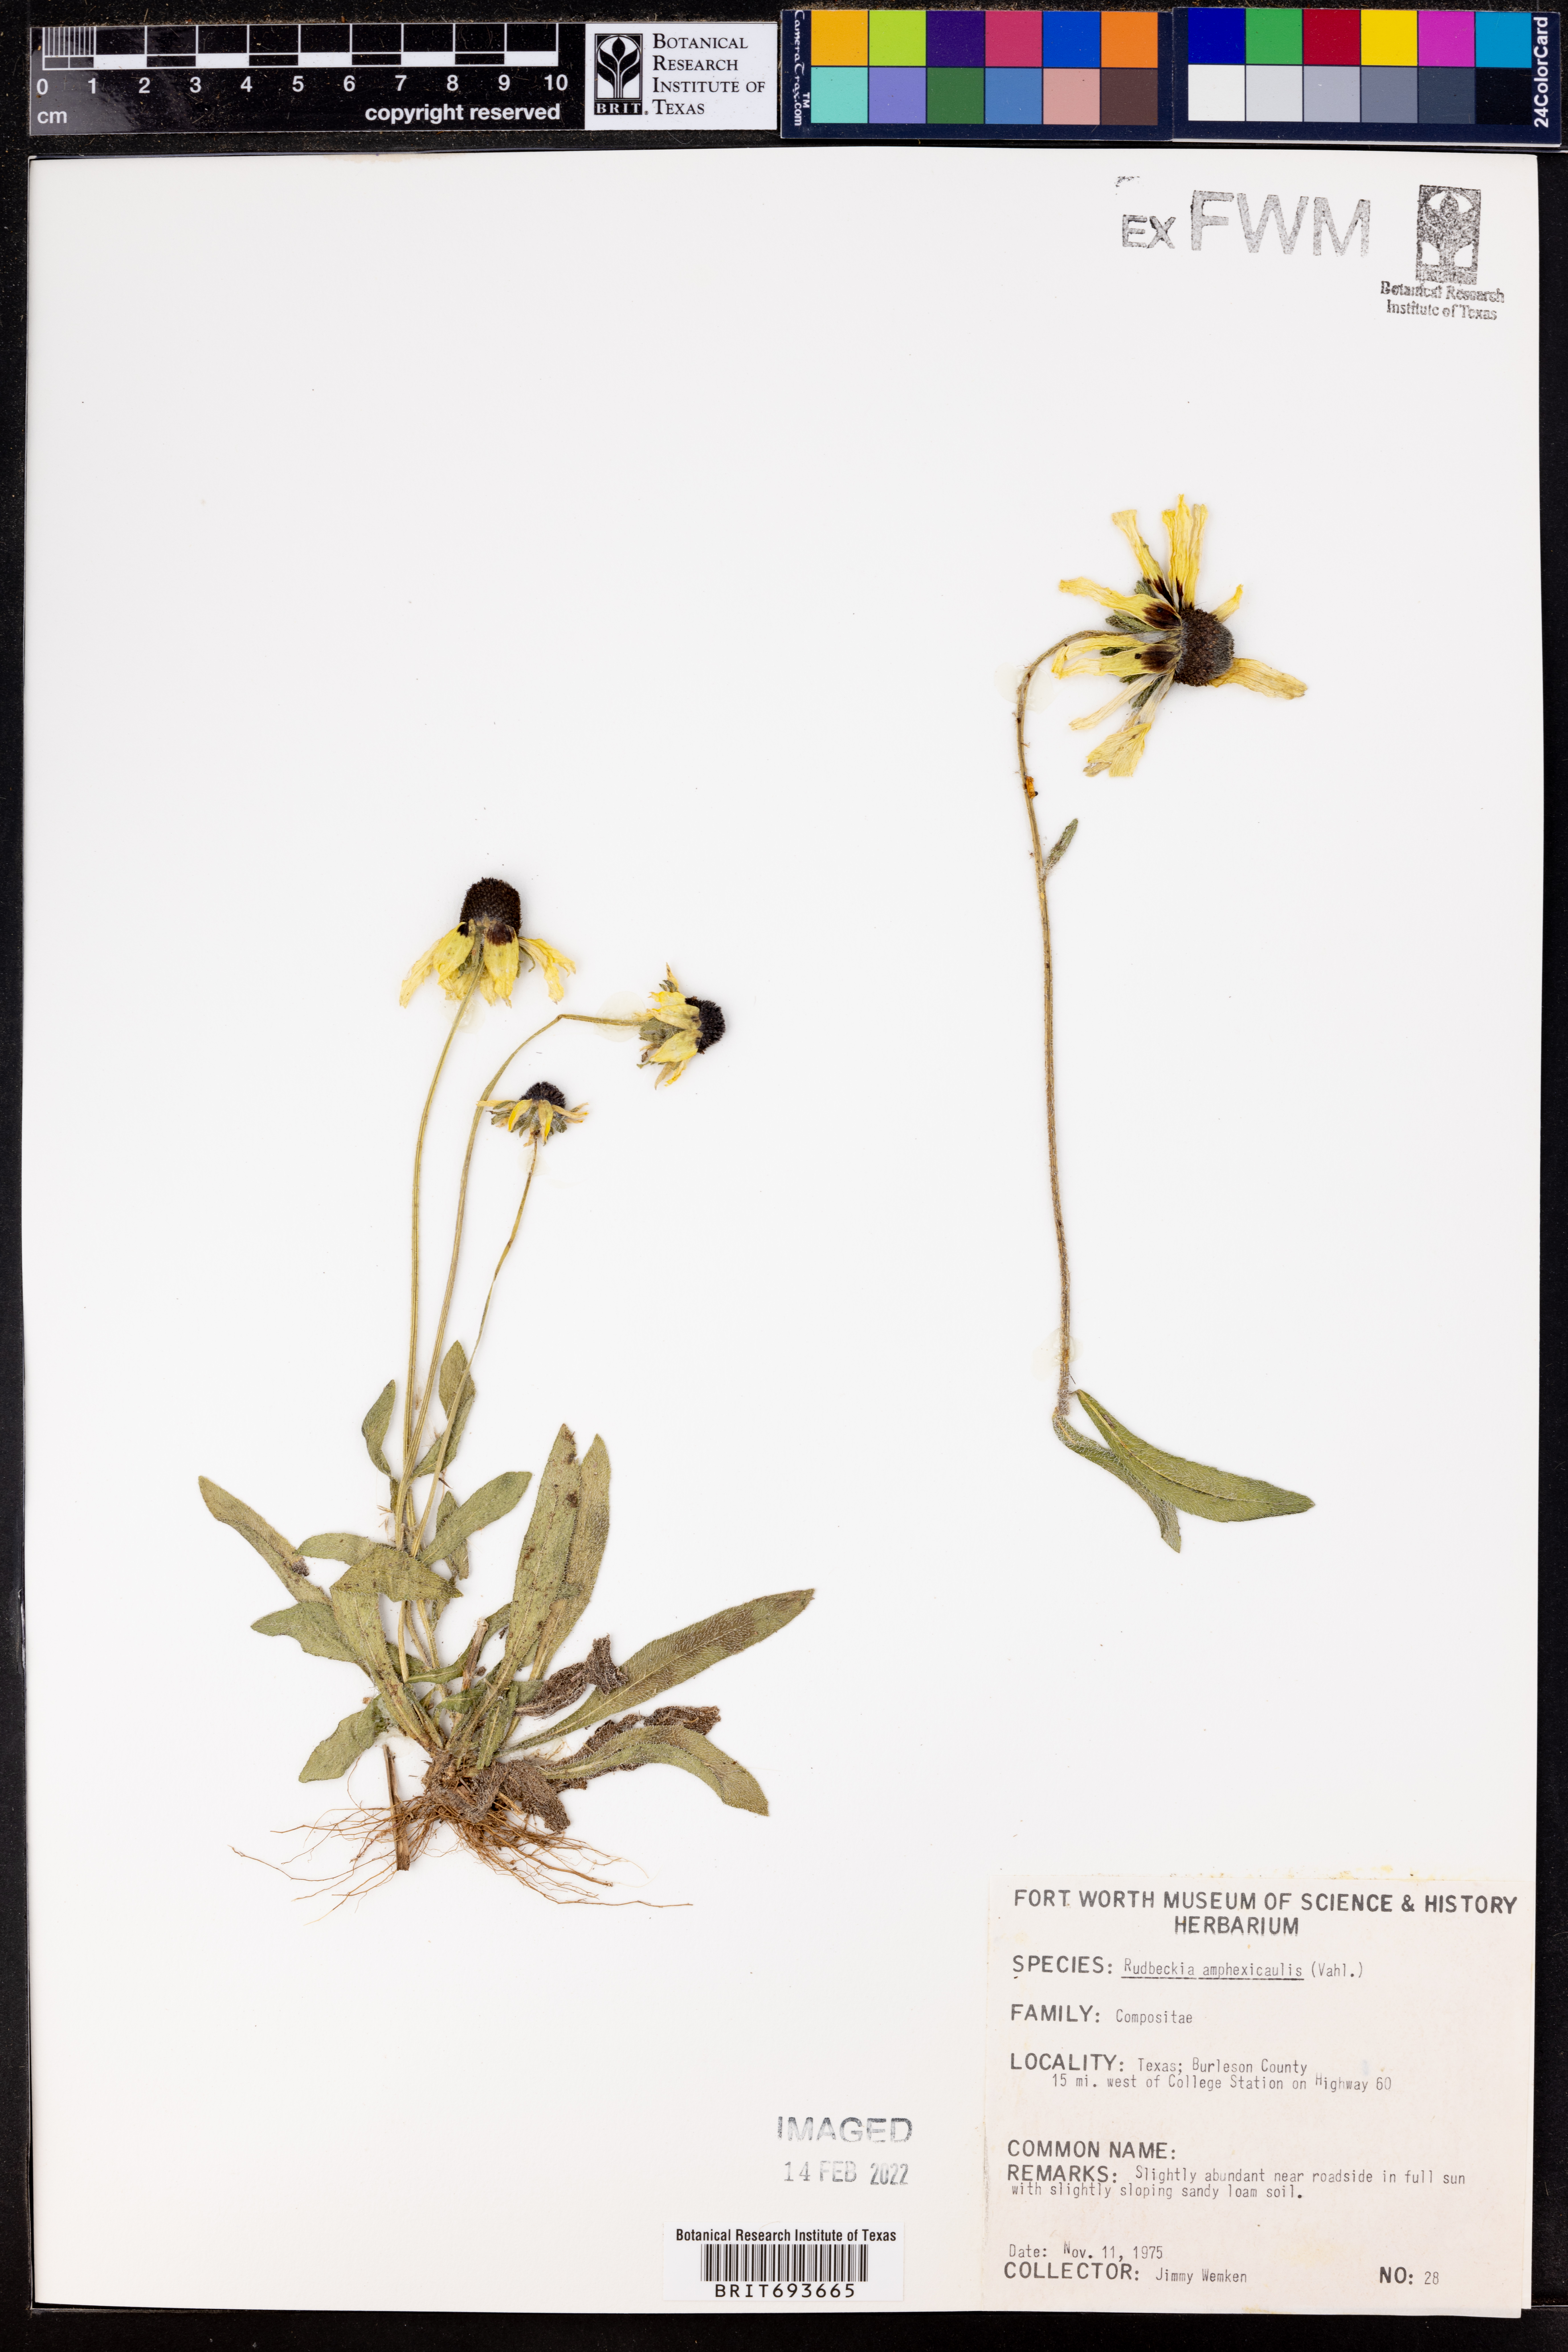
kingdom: Plantae
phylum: Tracheophyta
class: Magnoliopsida
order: Asterales
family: Asteraceae
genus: Rudbeckia
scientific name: Rudbeckia amplexicaulis
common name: Clasping-leaf coneflower
